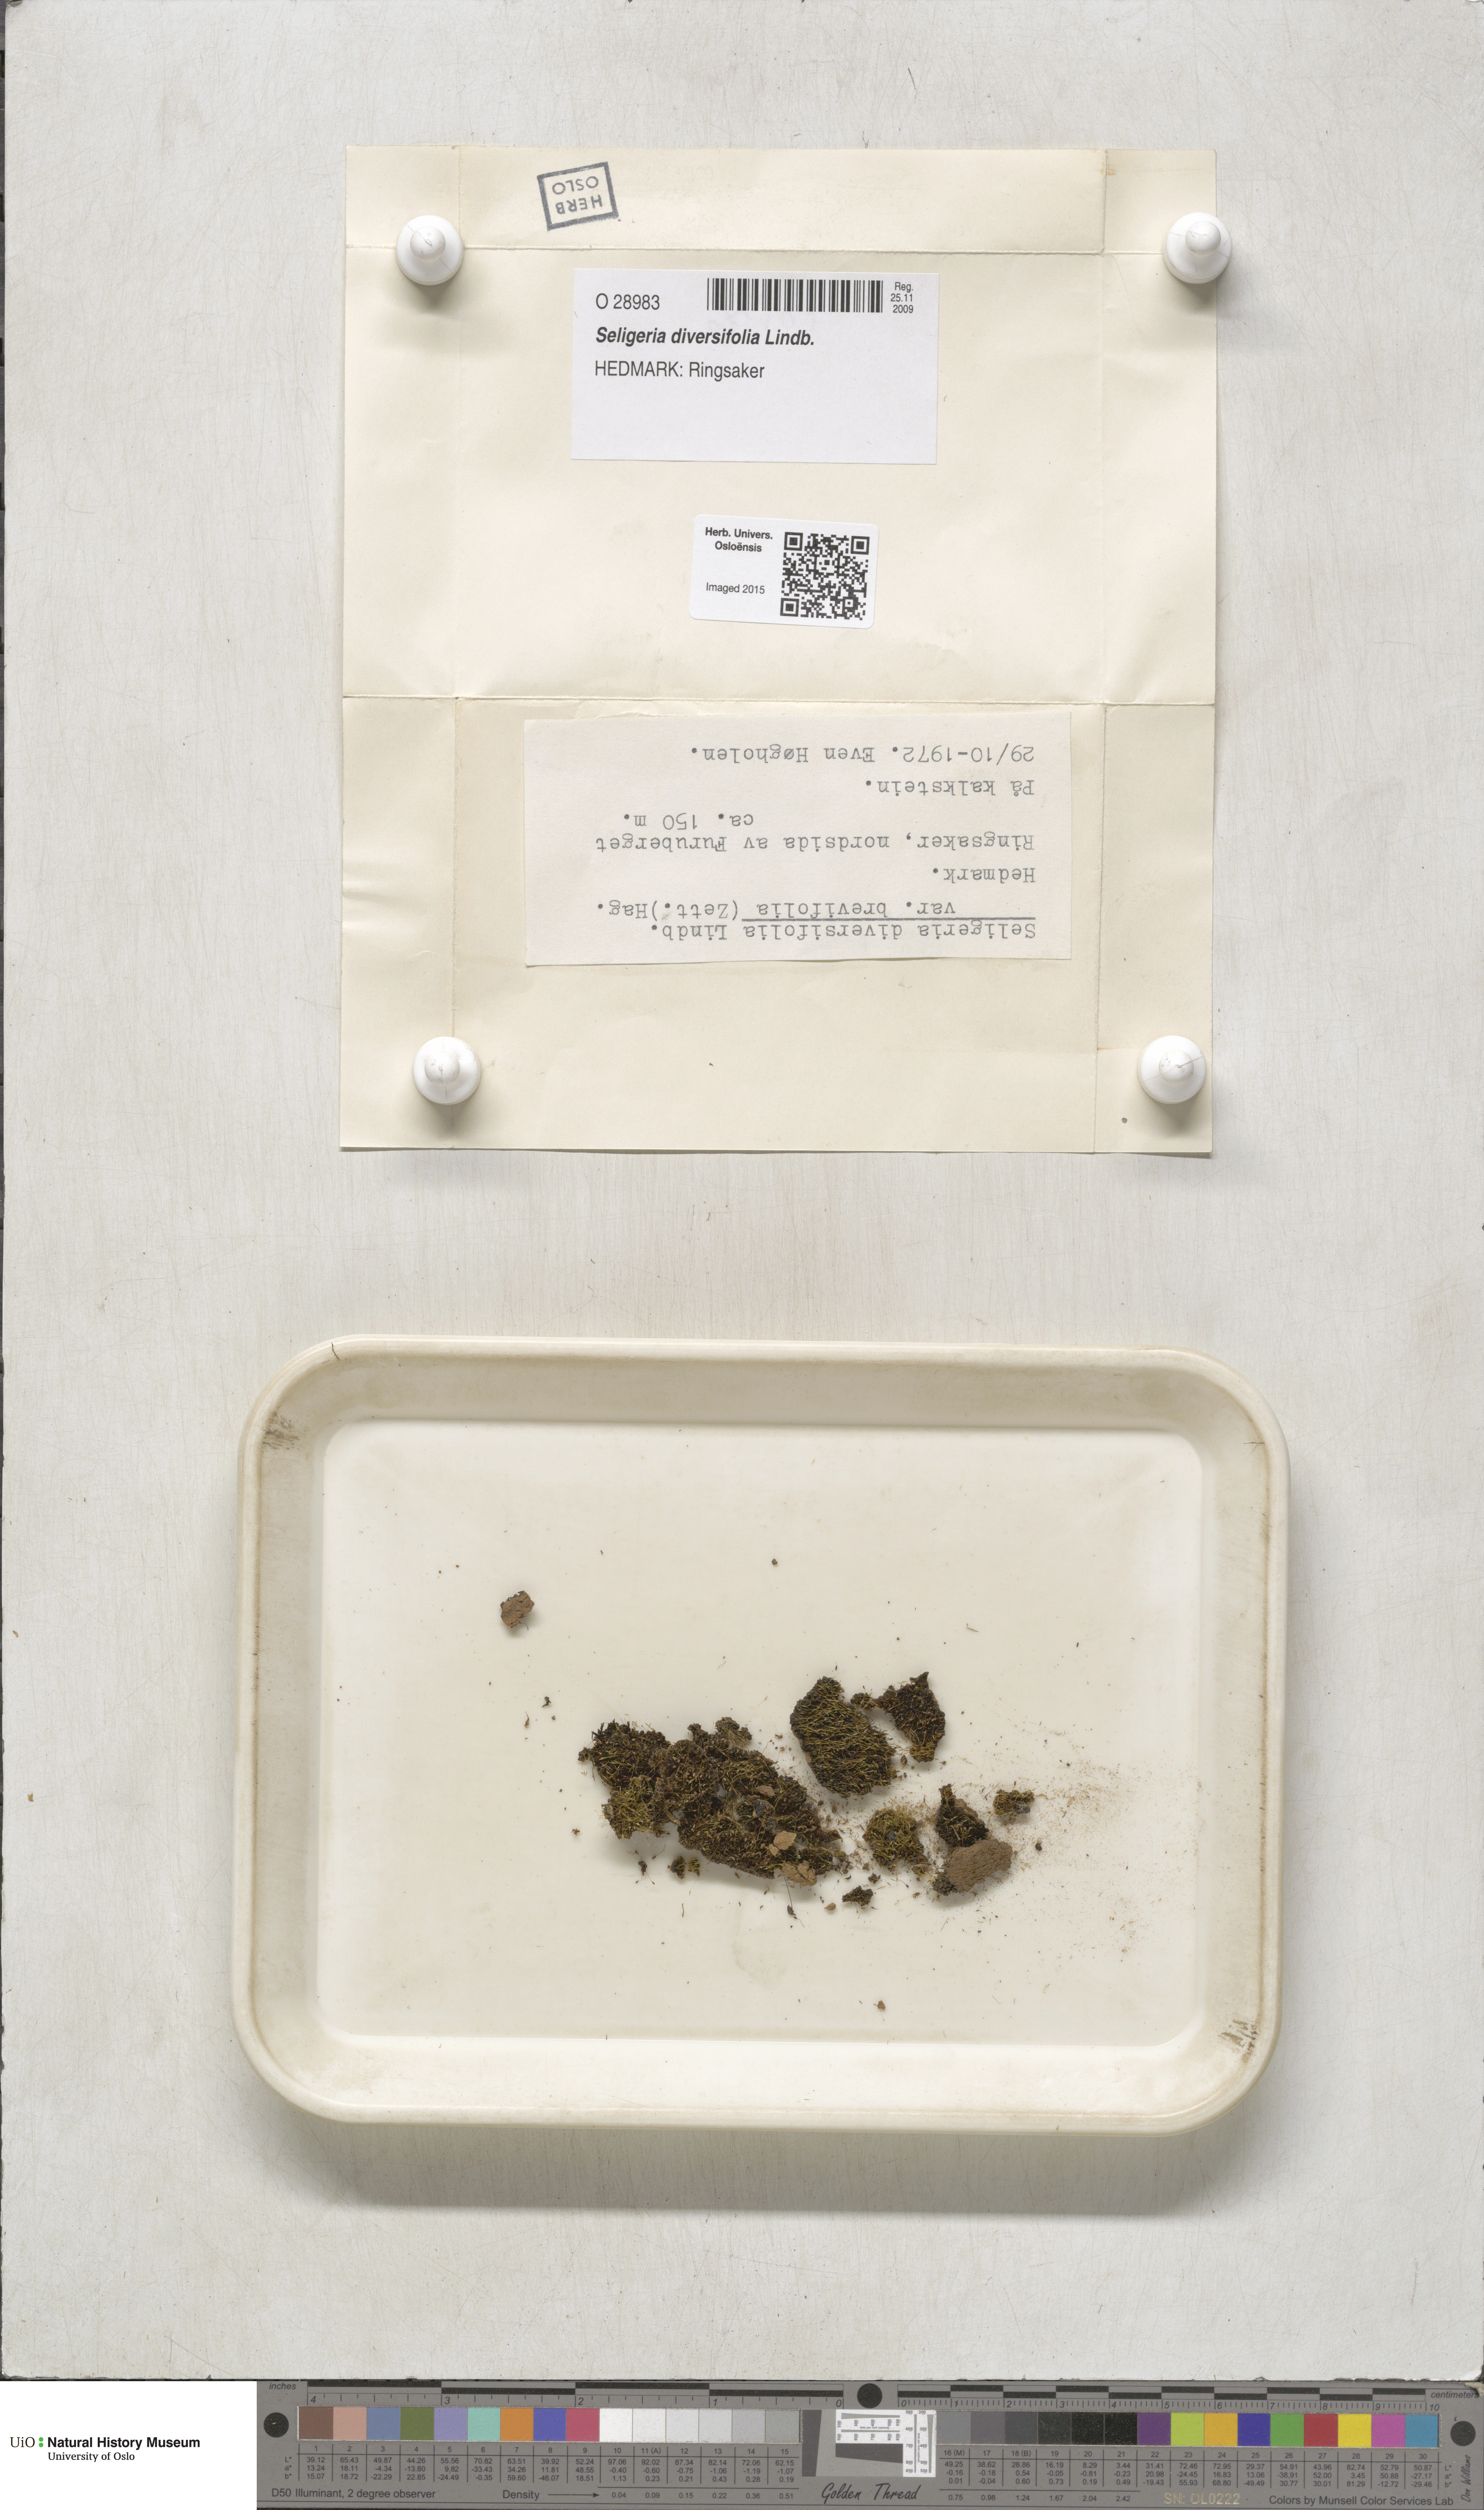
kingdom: Plantae
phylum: Bryophyta
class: Bryopsida
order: Grimmiales
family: Seligeriaceae
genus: Blindiadelphus
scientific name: Blindiadelphus diversifolius
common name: Long rock-bristle
